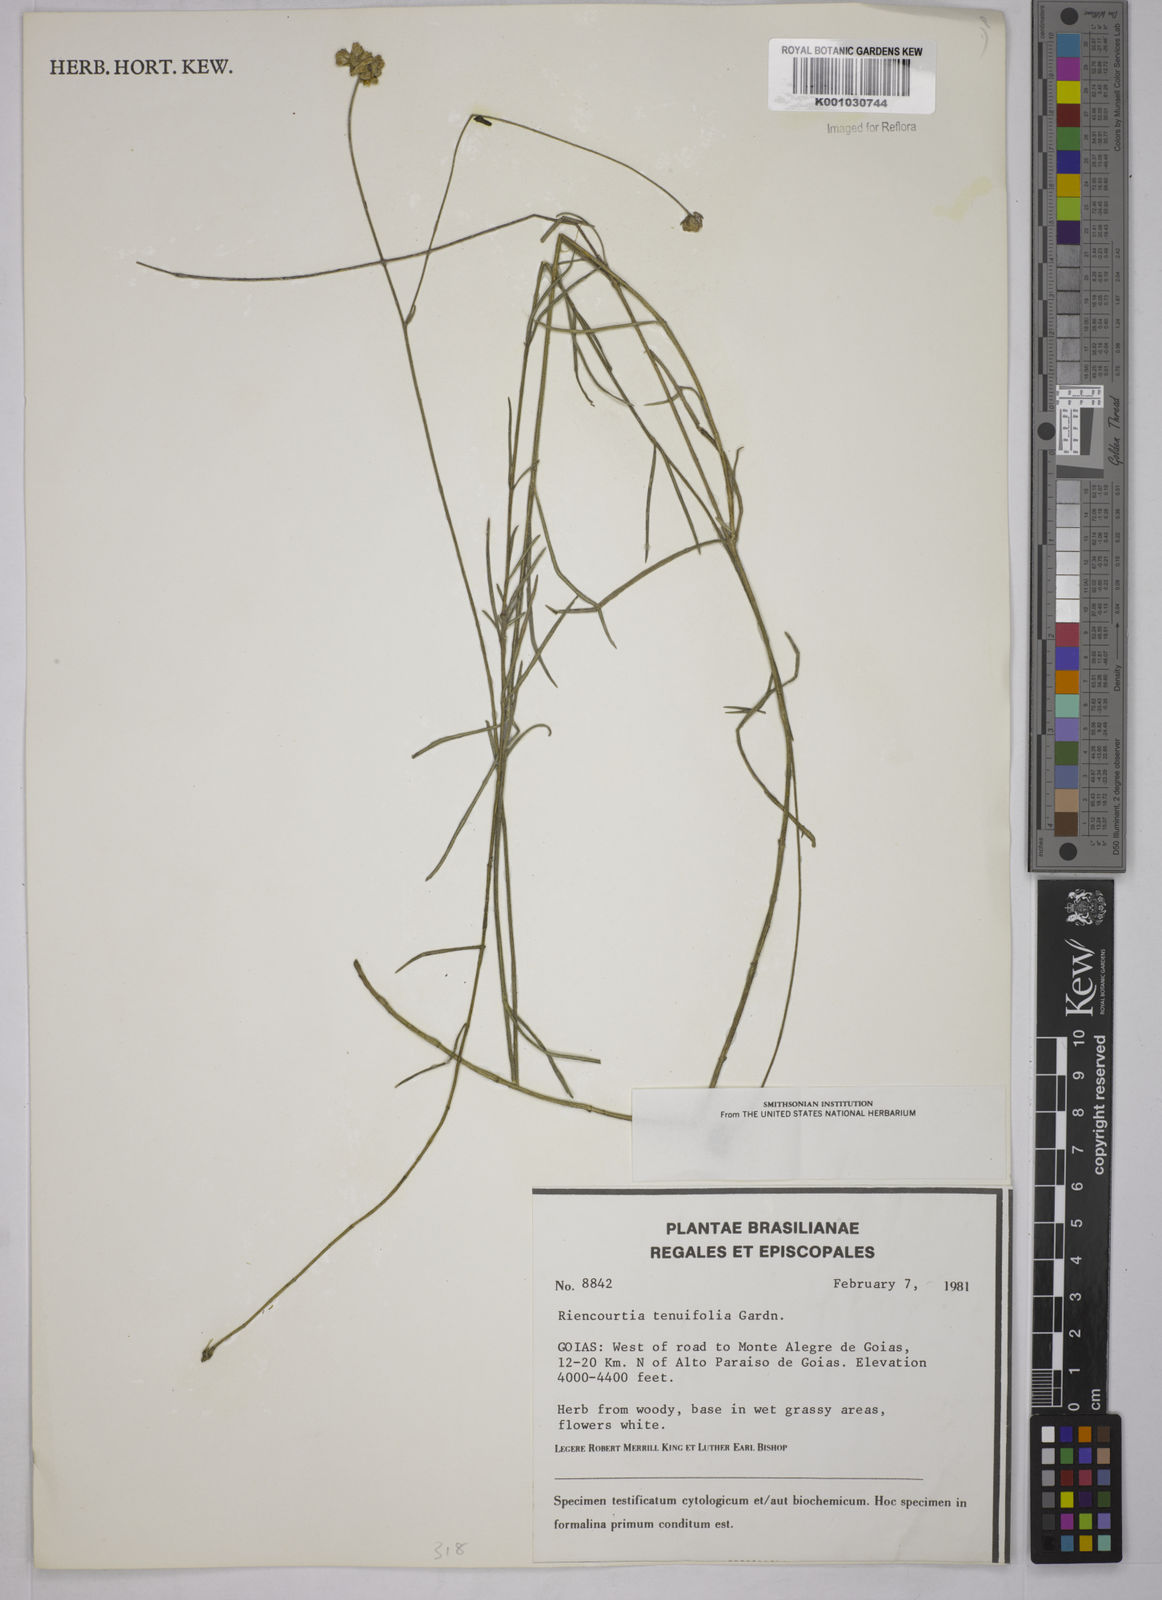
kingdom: Plantae
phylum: Tracheophyta
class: Magnoliopsida
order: Asterales
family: Asteraceae
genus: Riencourtia
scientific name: Riencourtia tenuifolia
